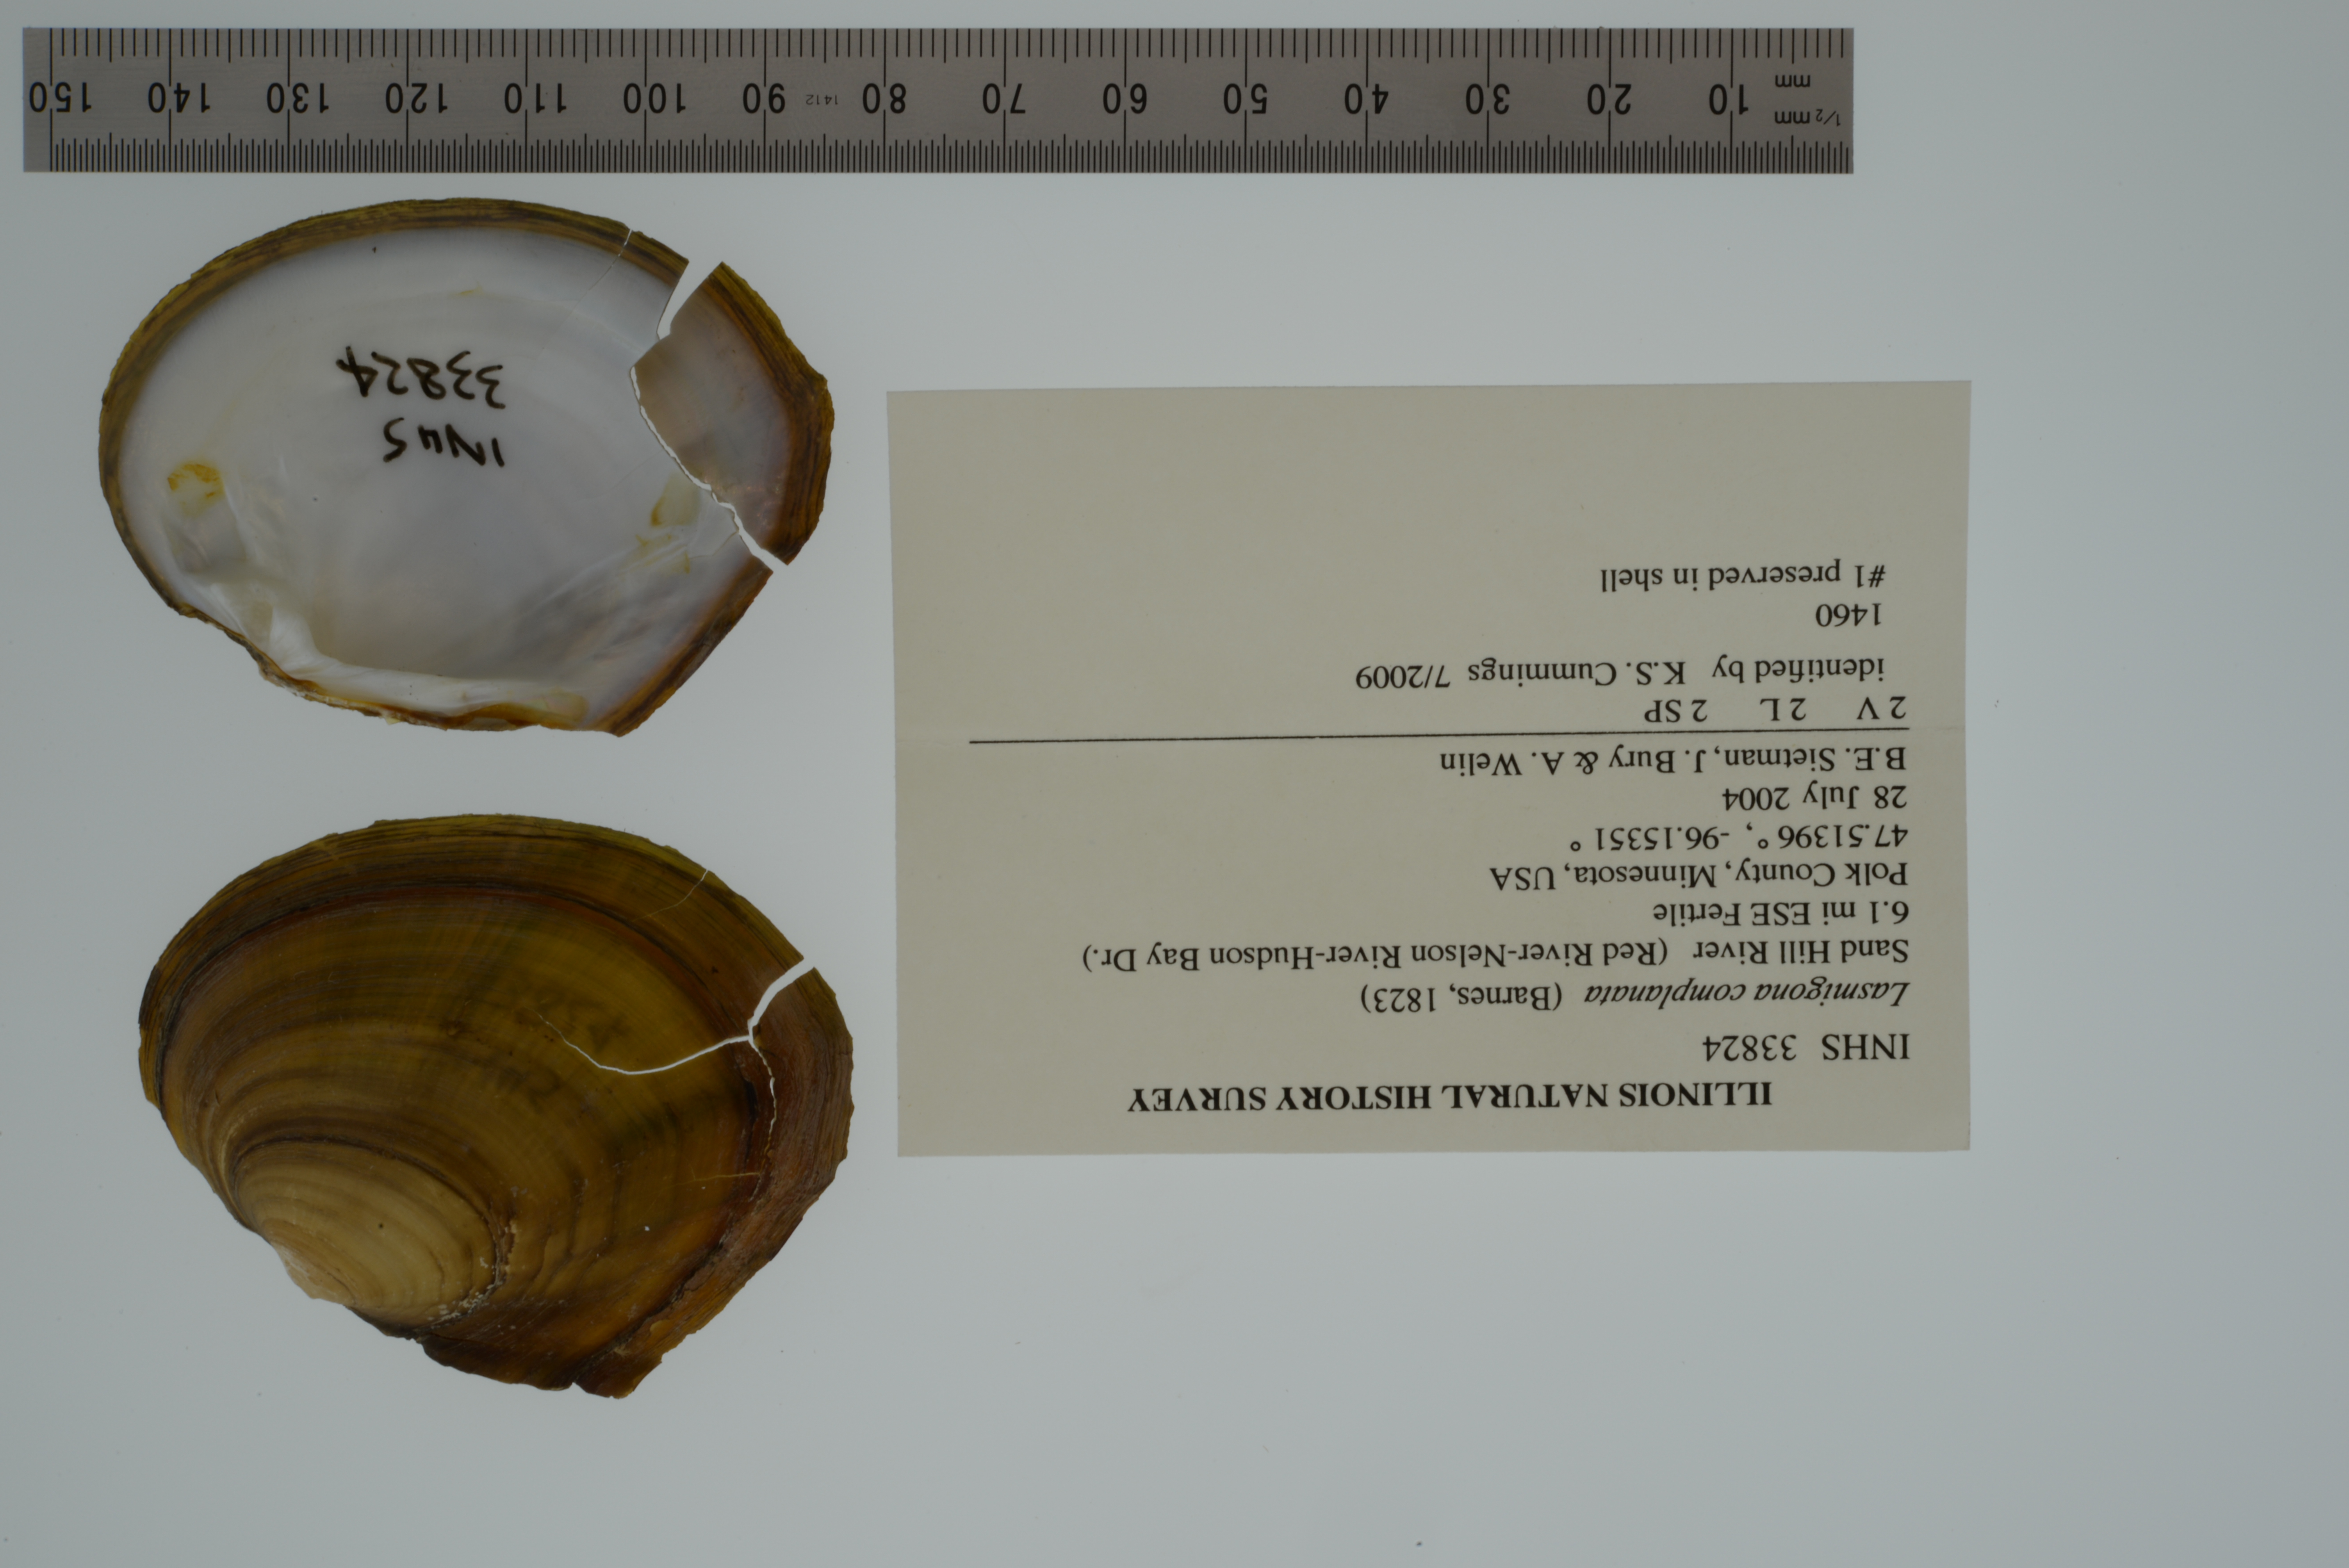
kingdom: Animalia
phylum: Mollusca
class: Bivalvia
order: Unionida
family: Unionidae
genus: Lasmigona
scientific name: Lasmigona complanata
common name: White heelsplitter
